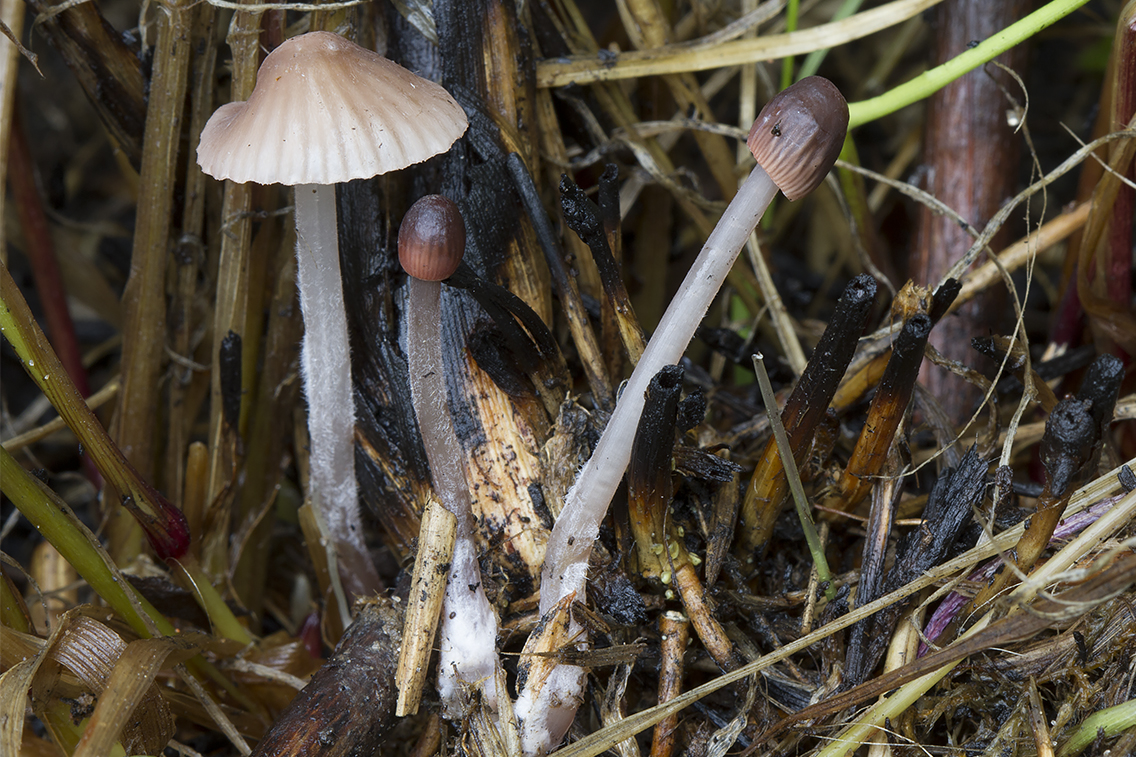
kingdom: Fungi
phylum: Basidiomycota
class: Agaricomycetes
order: Agaricales
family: Mycenaceae
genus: Mycena
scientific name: Mycena olivaceomarginata
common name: brunægget huesvamp
